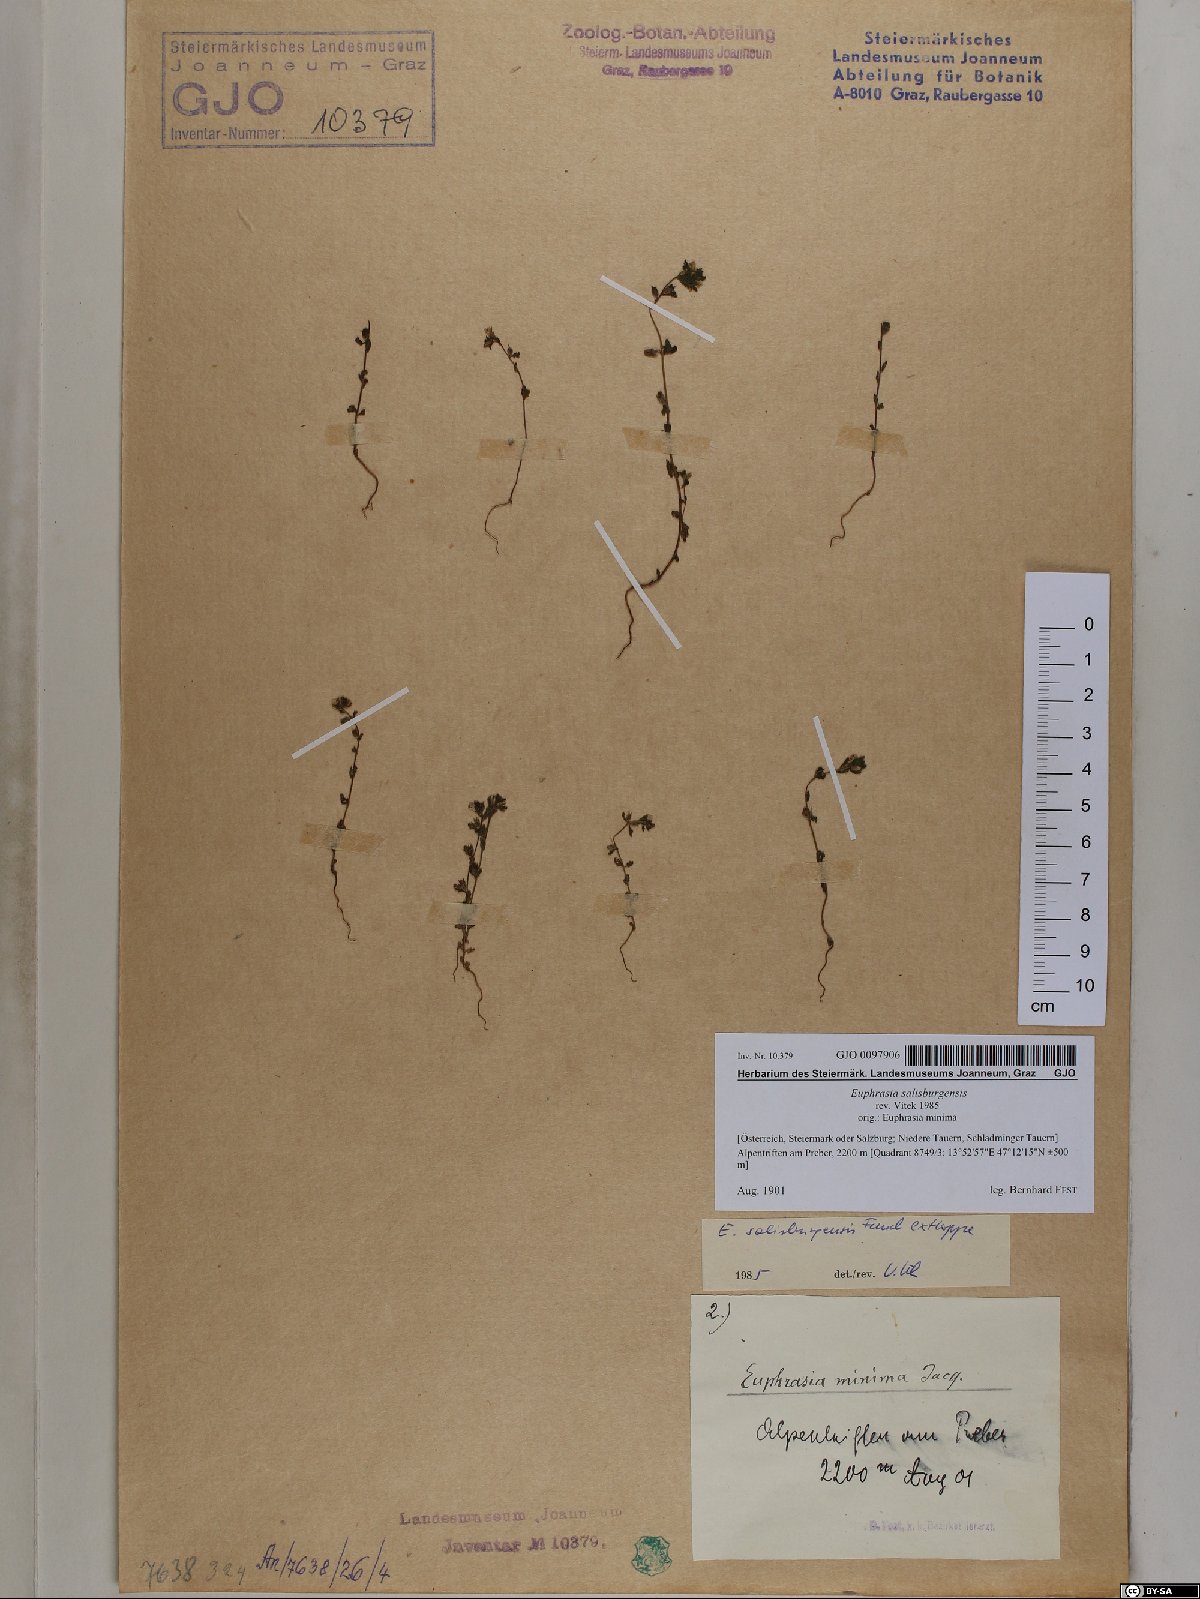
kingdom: Plantae
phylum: Tracheophyta
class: Magnoliopsida
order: Lamiales
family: Orobanchaceae
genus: Euphrasia
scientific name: Euphrasia salisburgensis
